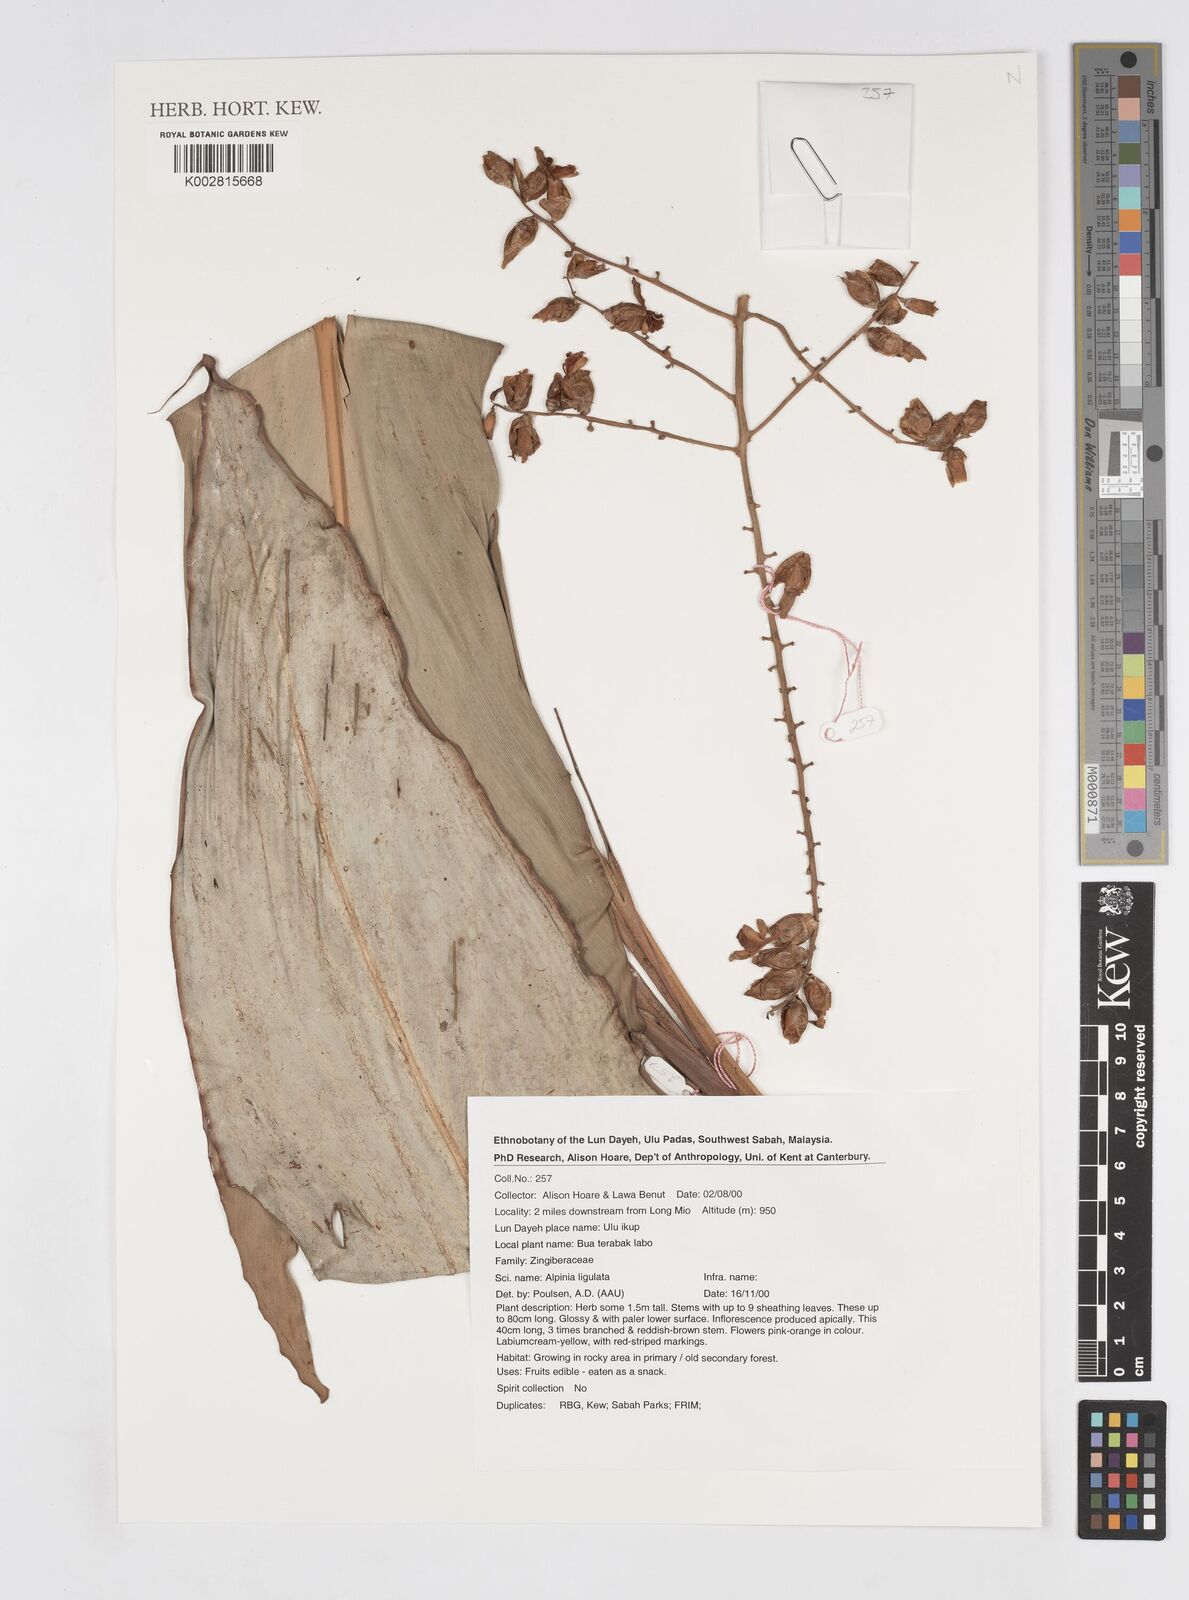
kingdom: Plantae
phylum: Tracheophyta
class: Liliopsida
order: Zingiberales
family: Zingiberaceae
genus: Alpinia
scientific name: Alpinia ligulata
